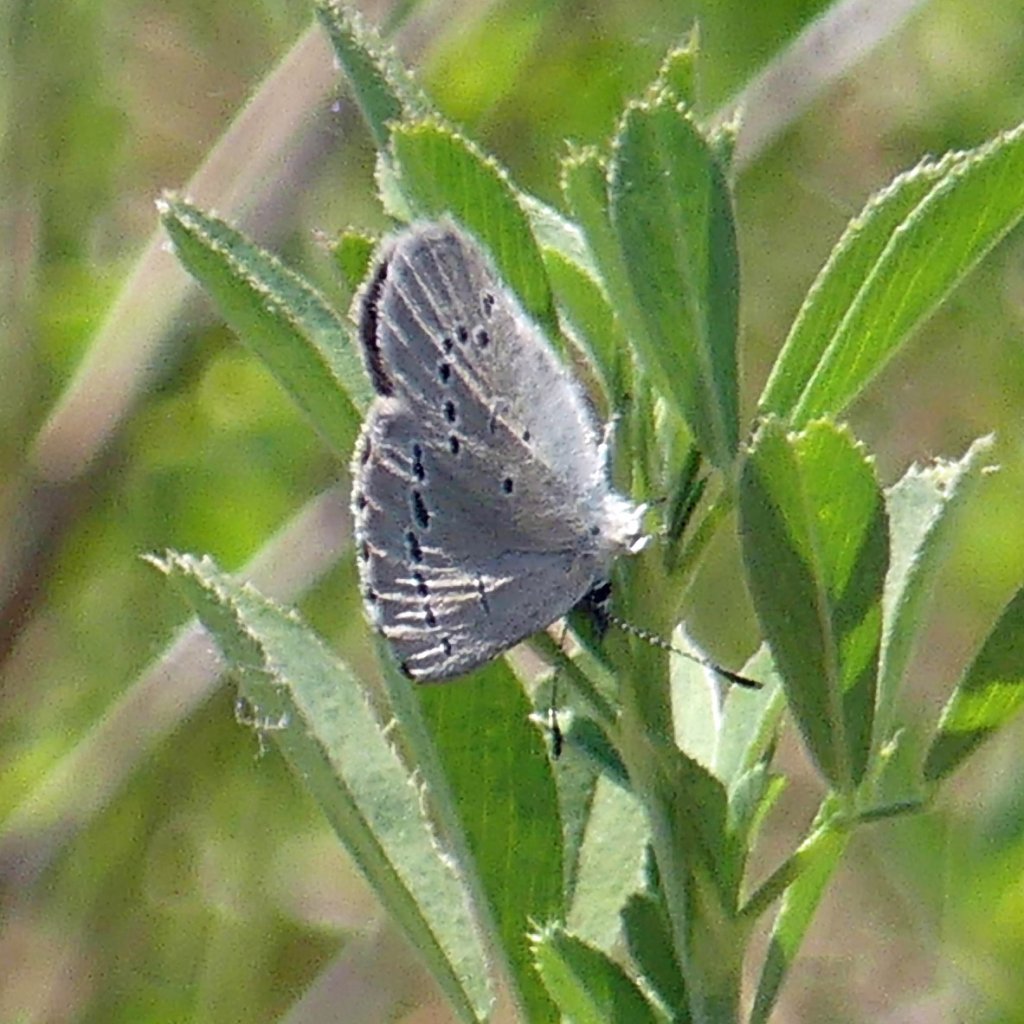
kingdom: Animalia
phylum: Arthropoda
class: Insecta
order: Lepidoptera
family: Lycaenidae
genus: Glaucopsyche
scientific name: Glaucopsyche lygdamus
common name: Silvery Blue
